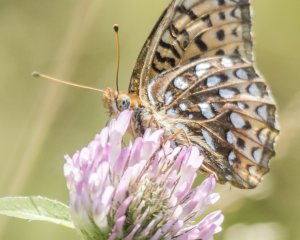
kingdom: Animalia
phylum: Arthropoda
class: Insecta
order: Lepidoptera
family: Nymphalidae
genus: Speyeria
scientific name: Speyeria atlantis
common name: Atlantis Fritillary
